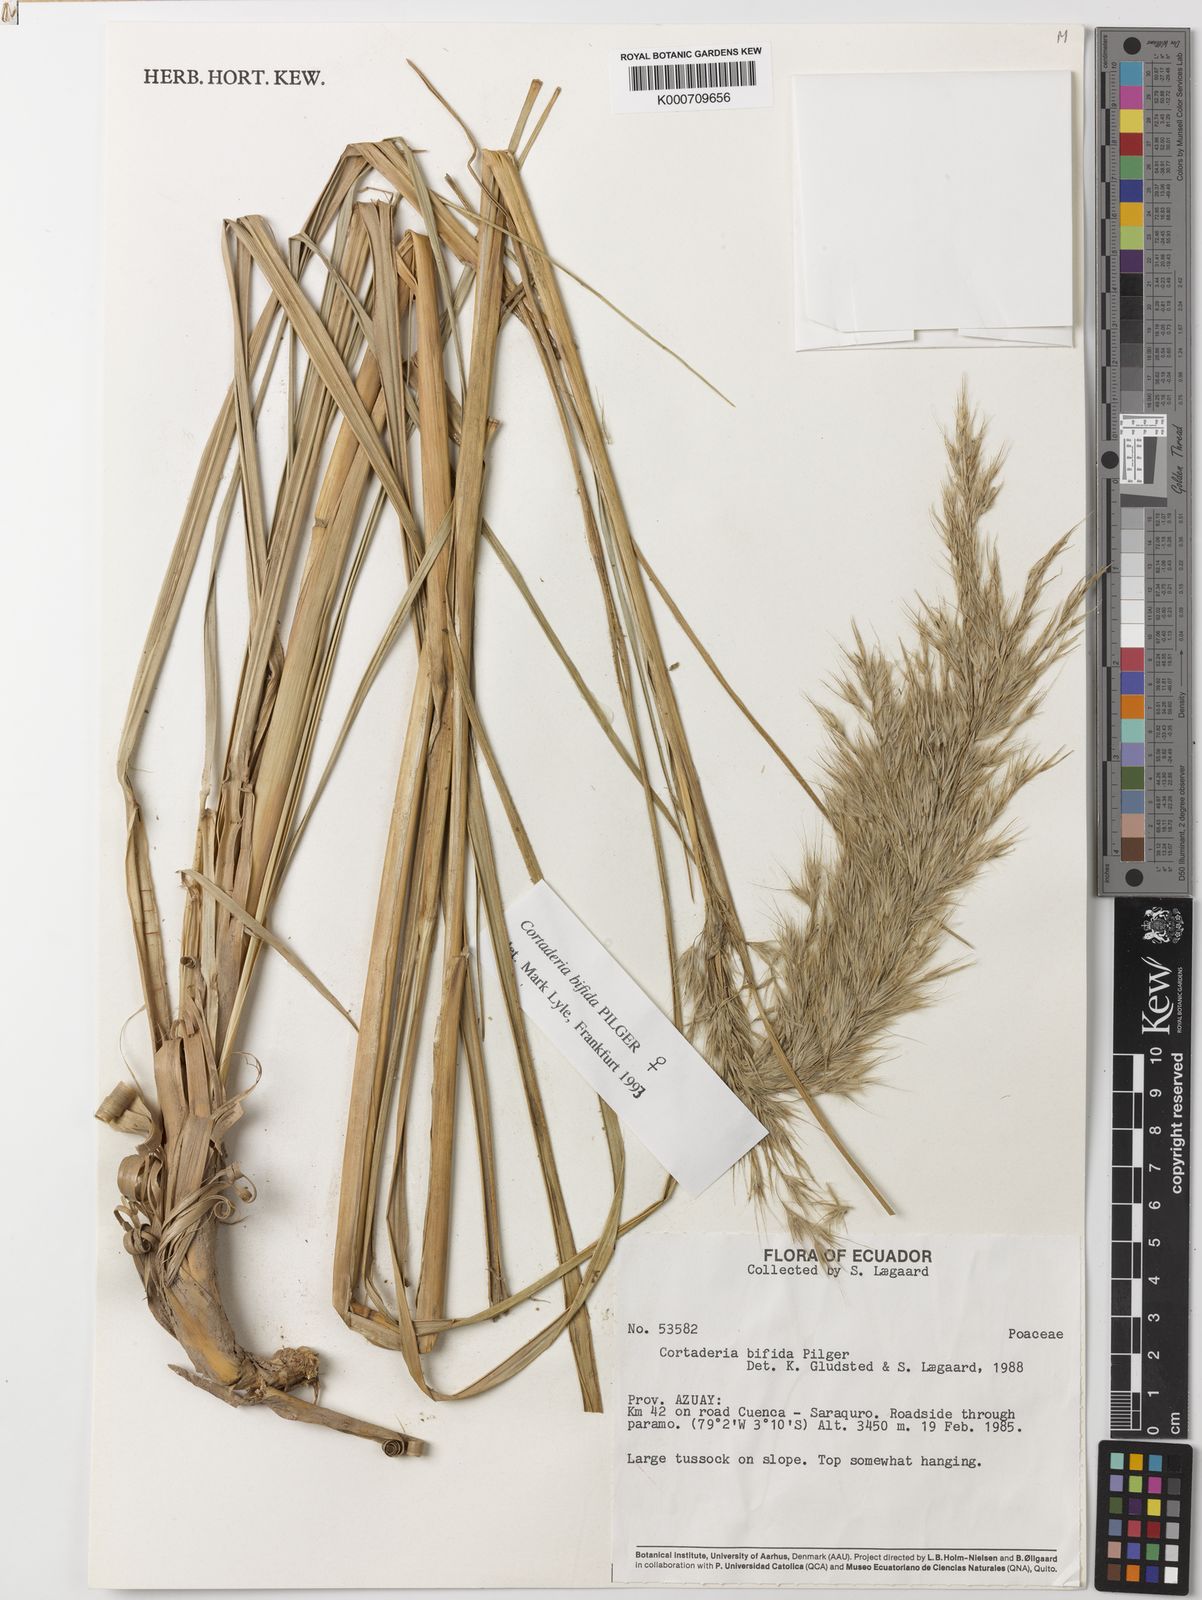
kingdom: Plantae
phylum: Tracheophyta
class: Liliopsida
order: Poales
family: Poaceae
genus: Cortaderia
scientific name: Cortaderia
